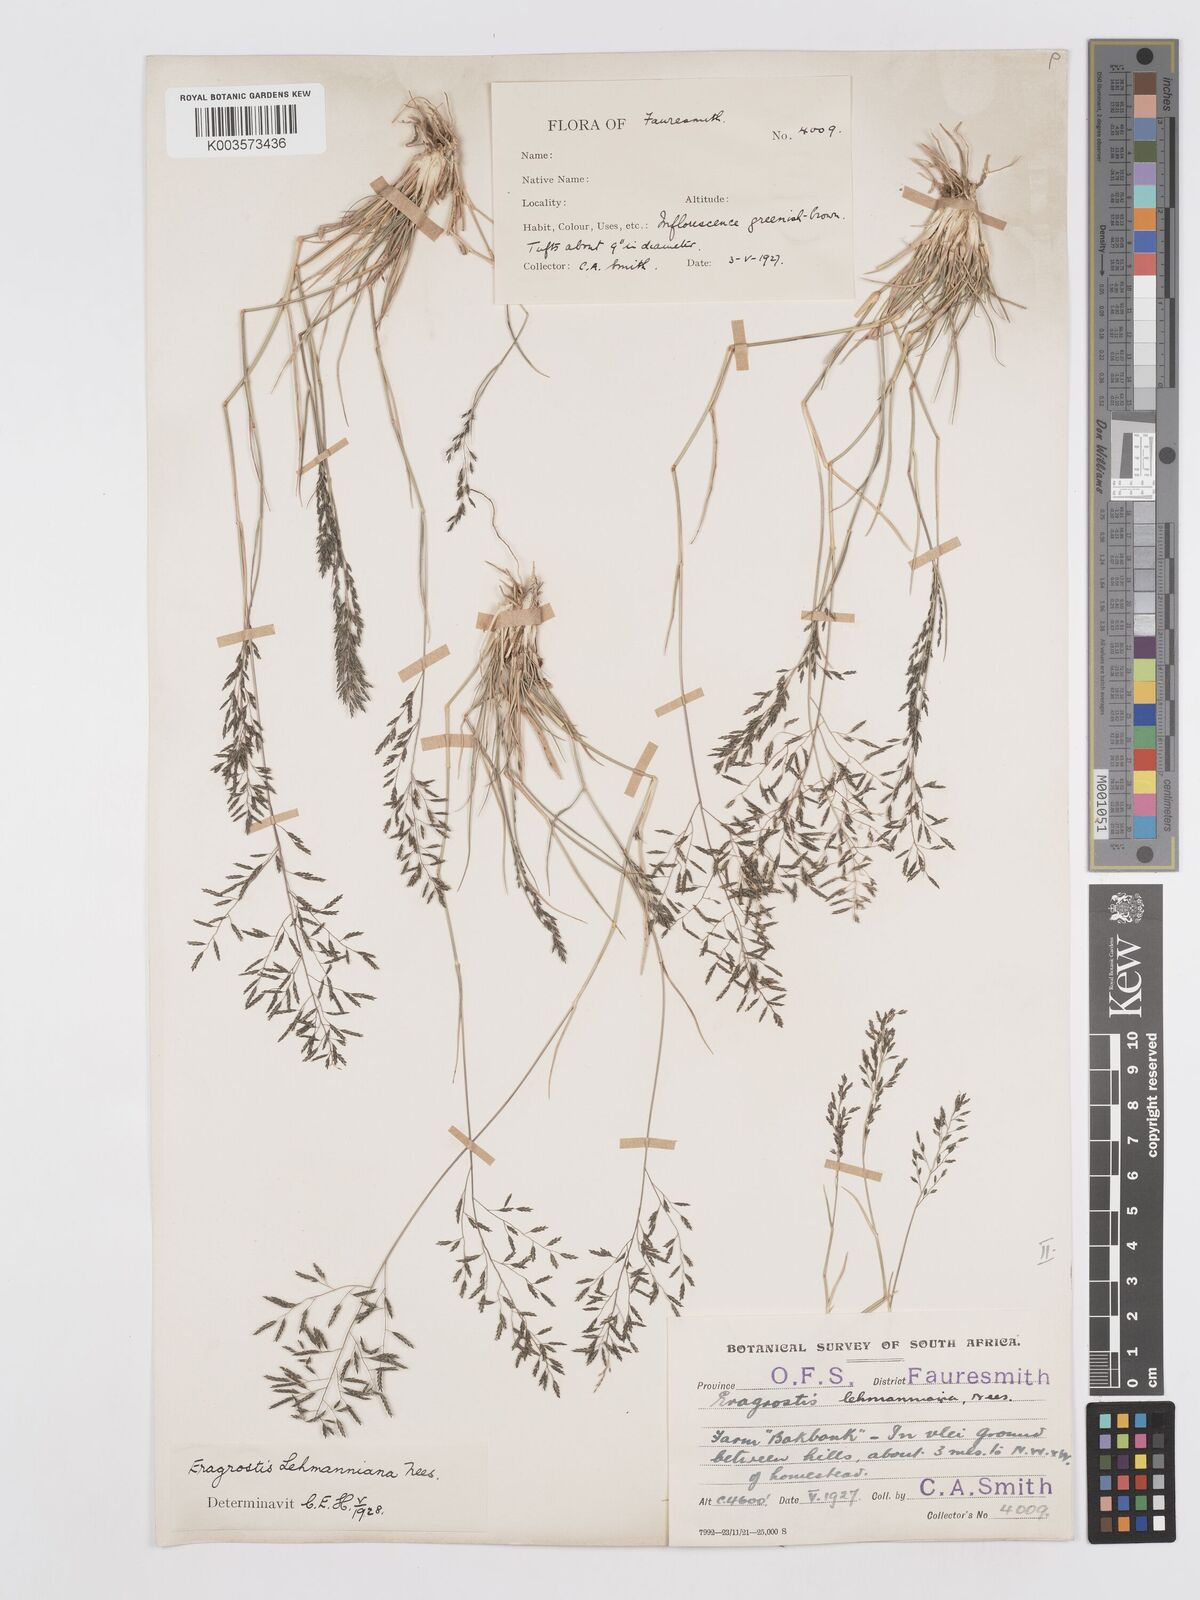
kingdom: Plantae
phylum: Tracheophyta
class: Liliopsida
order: Poales
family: Poaceae
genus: Eragrostis
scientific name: Eragrostis lehmanniana
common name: Lehmann lovegrass
